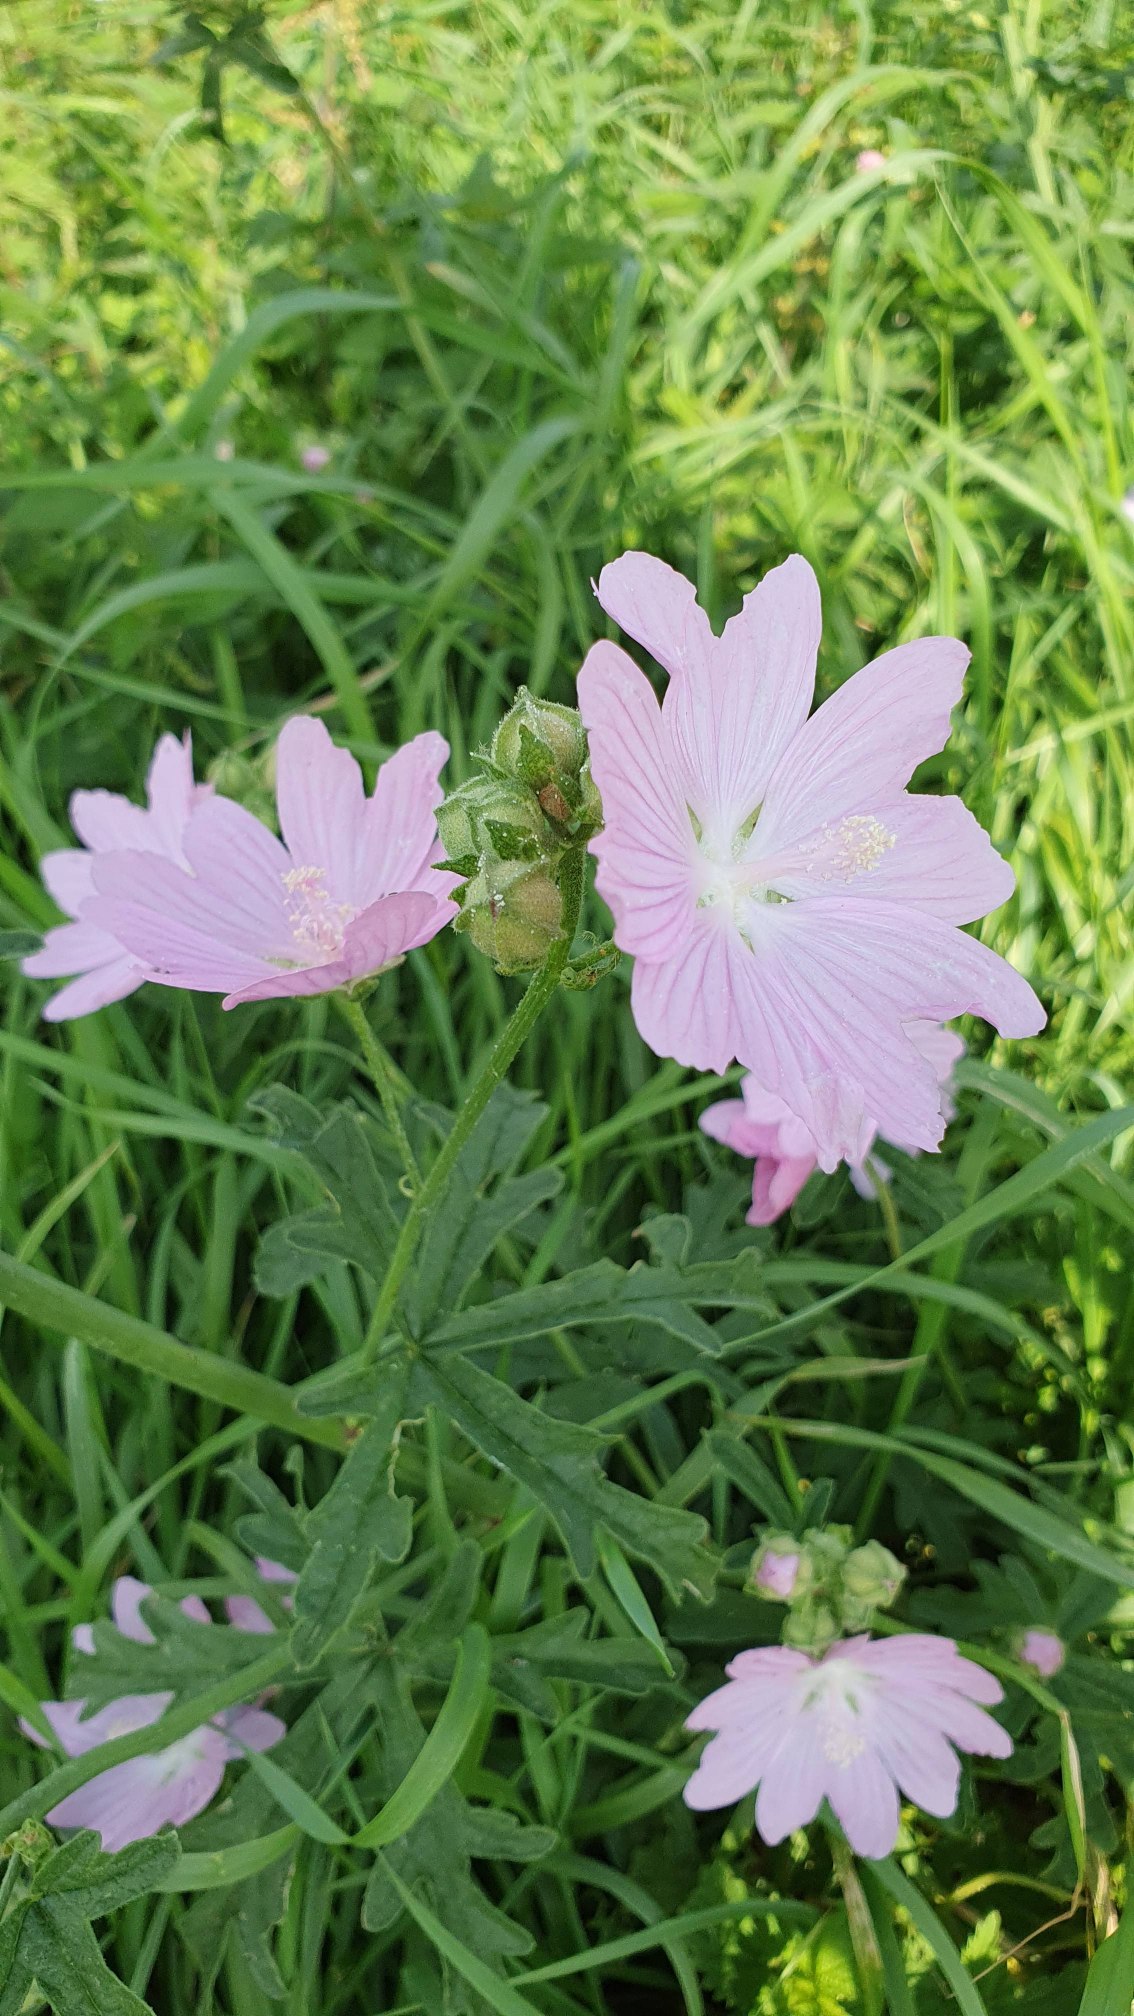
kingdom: Plantae
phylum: Tracheophyta
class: Magnoliopsida
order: Malvales
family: Malvaceae
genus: Malva
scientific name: Malva alcea
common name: Rosen-katost
